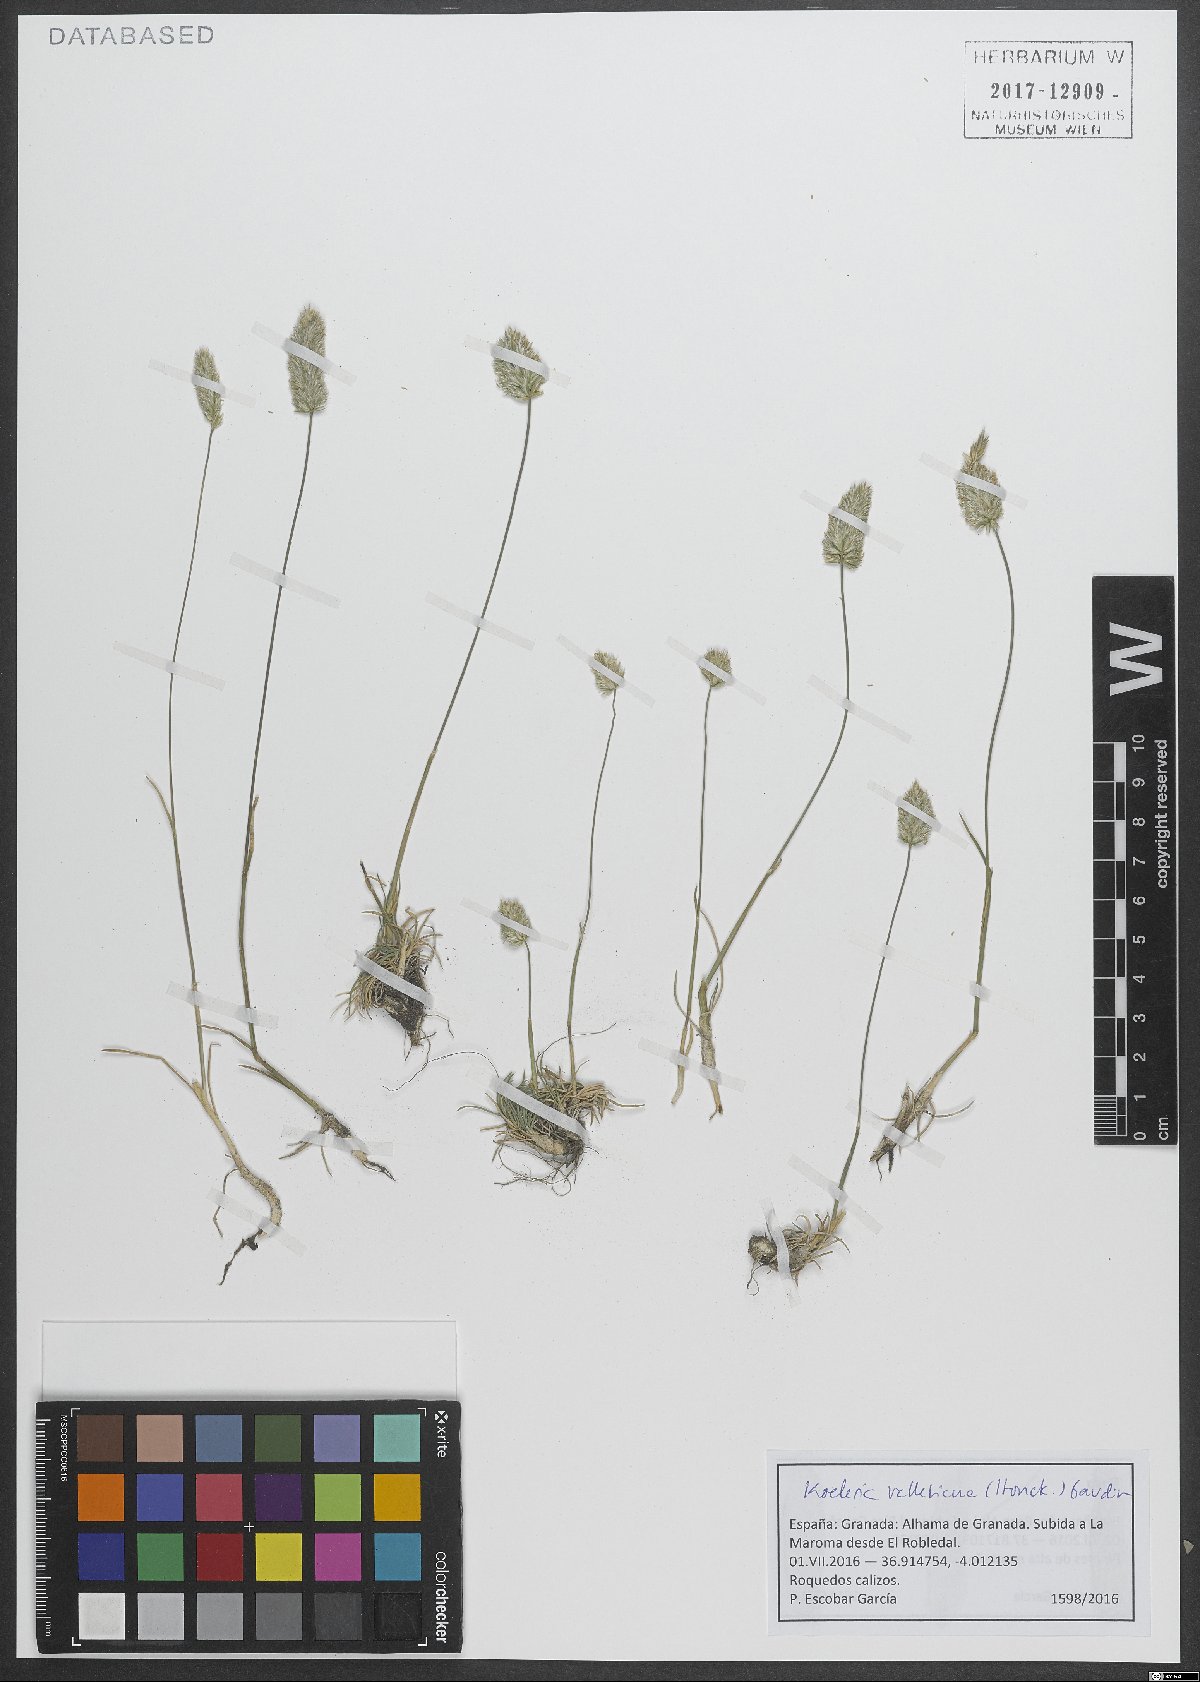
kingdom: Plantae
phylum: Tracheophyta
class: Liliopsida
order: Poales
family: Poaceae
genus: Koeleria
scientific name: Koeleria vallesiana
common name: Somerset hair-grass
